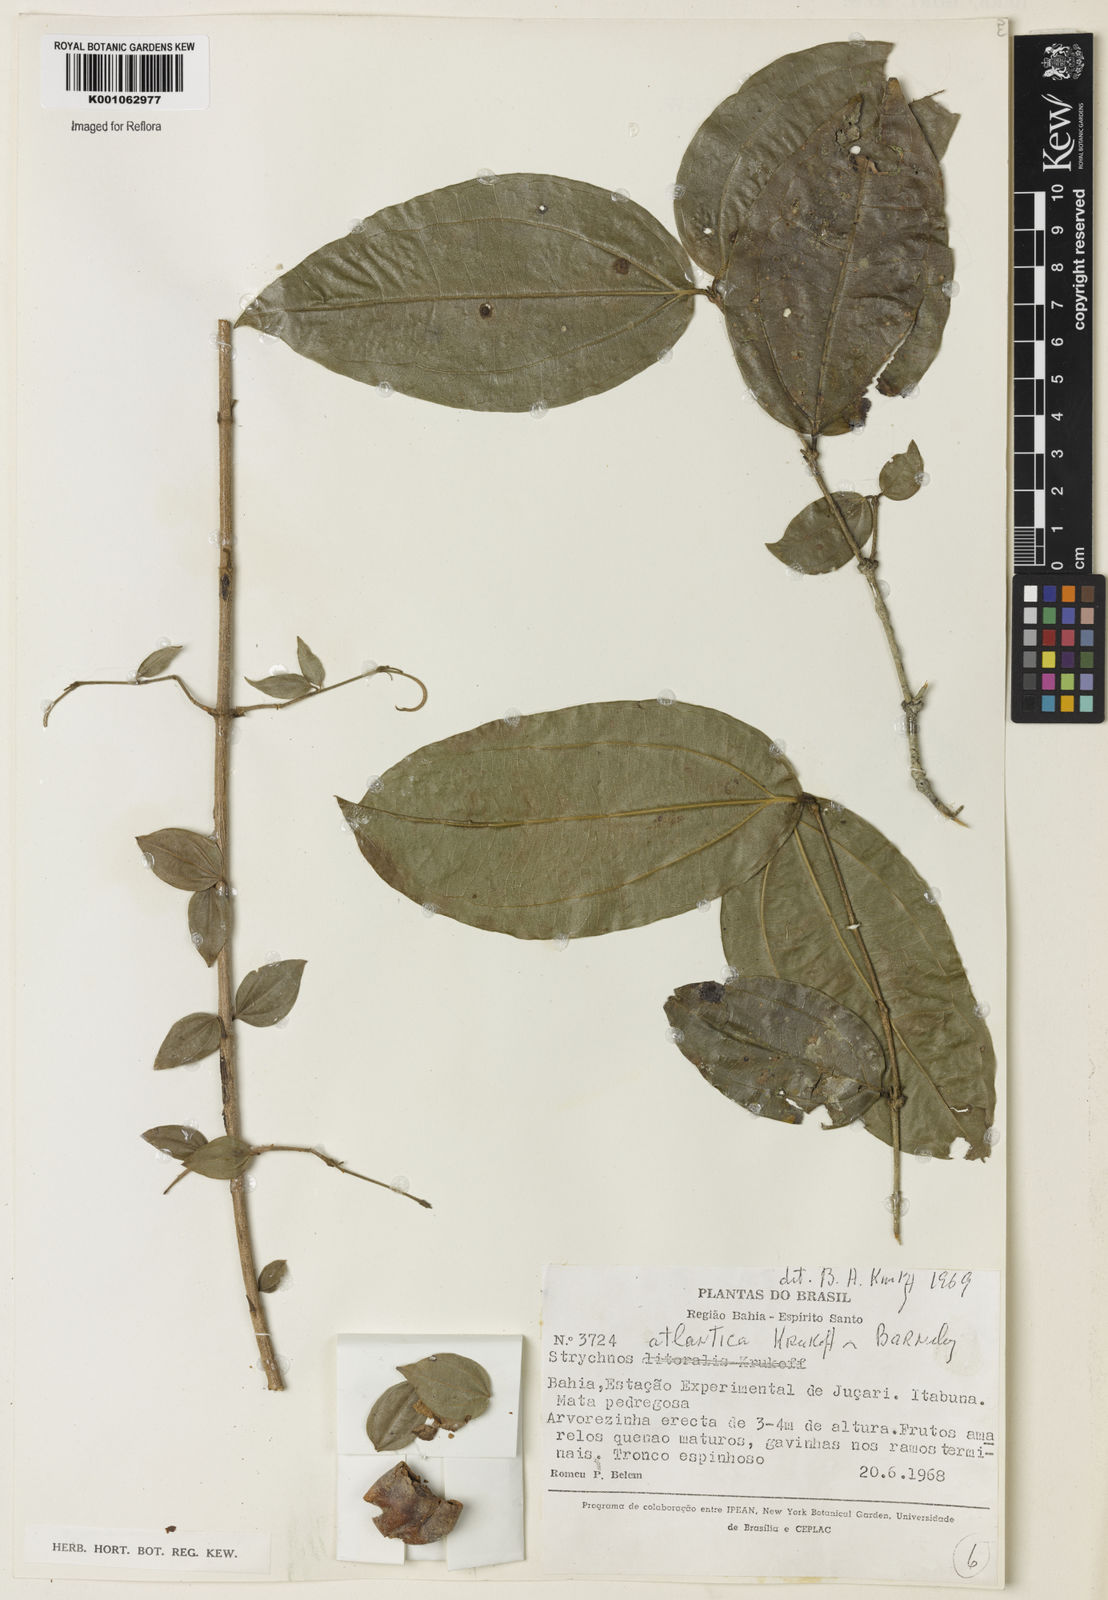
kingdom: Plantae
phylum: Tracheophyta
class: Magnoliopsida
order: Gentianales
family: Loganiaceae
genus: Strychnos
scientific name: Strychnos atlantica
